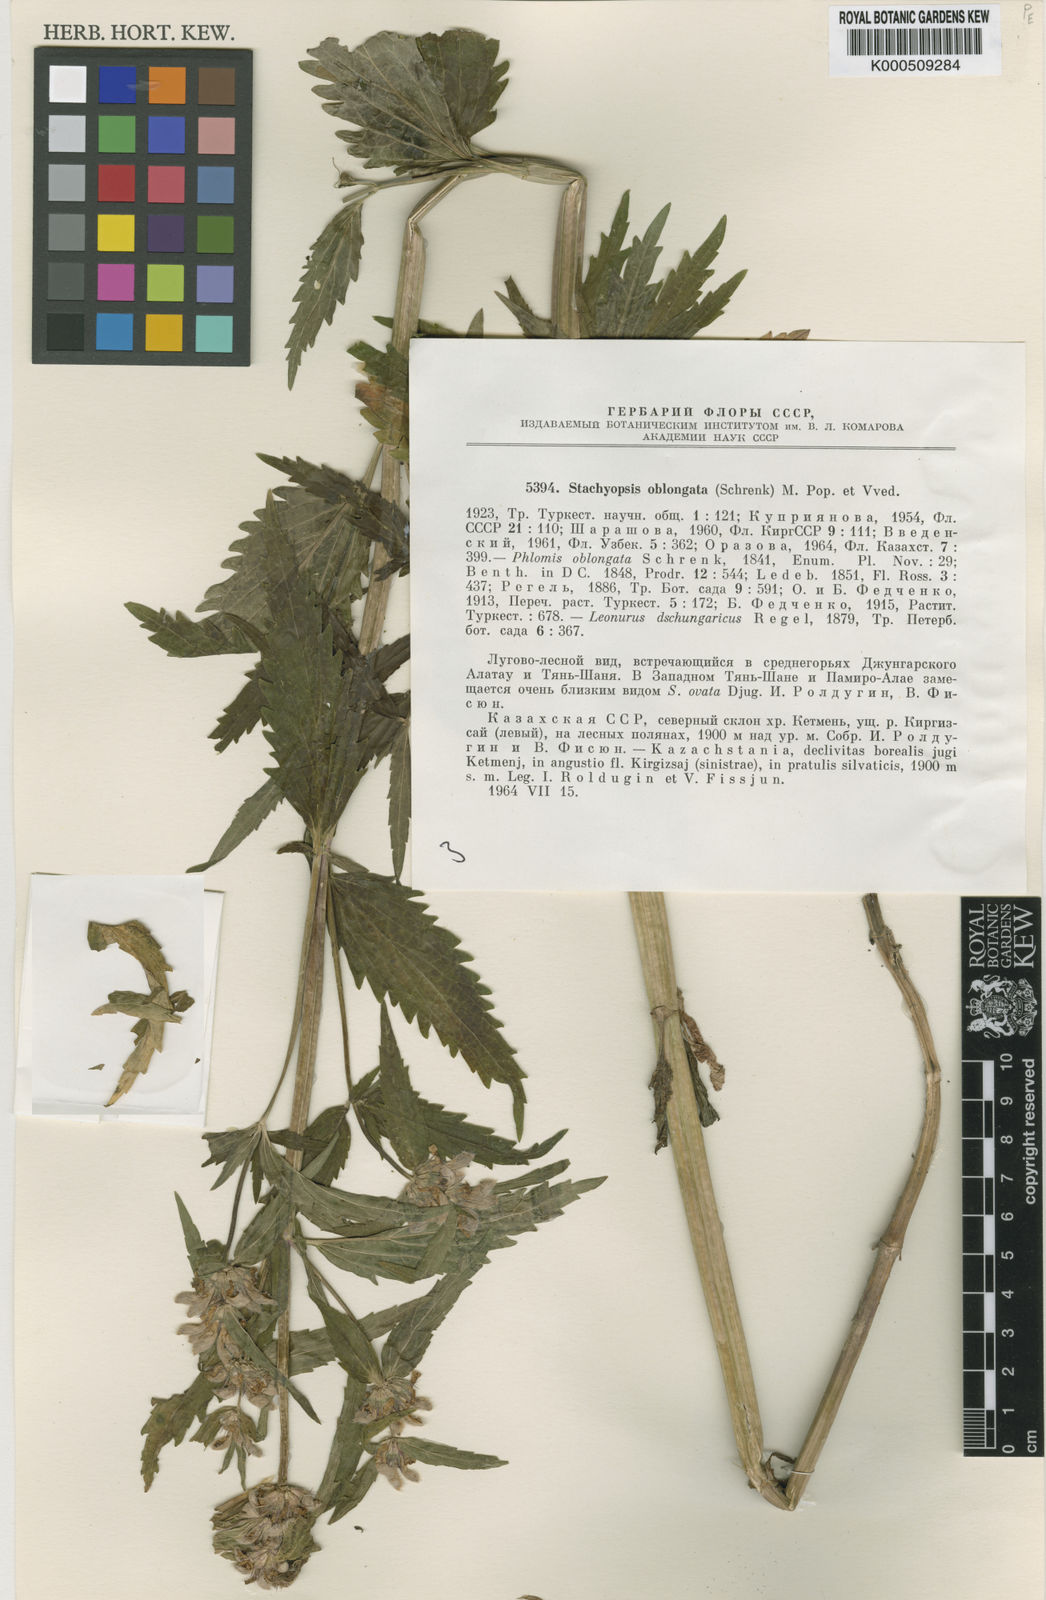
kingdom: Plantae
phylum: Tracheophyta
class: Magnoliopsida
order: Lamiales
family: Lamiaceae
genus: Eriophyton
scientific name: Eriophyton oblongatum
